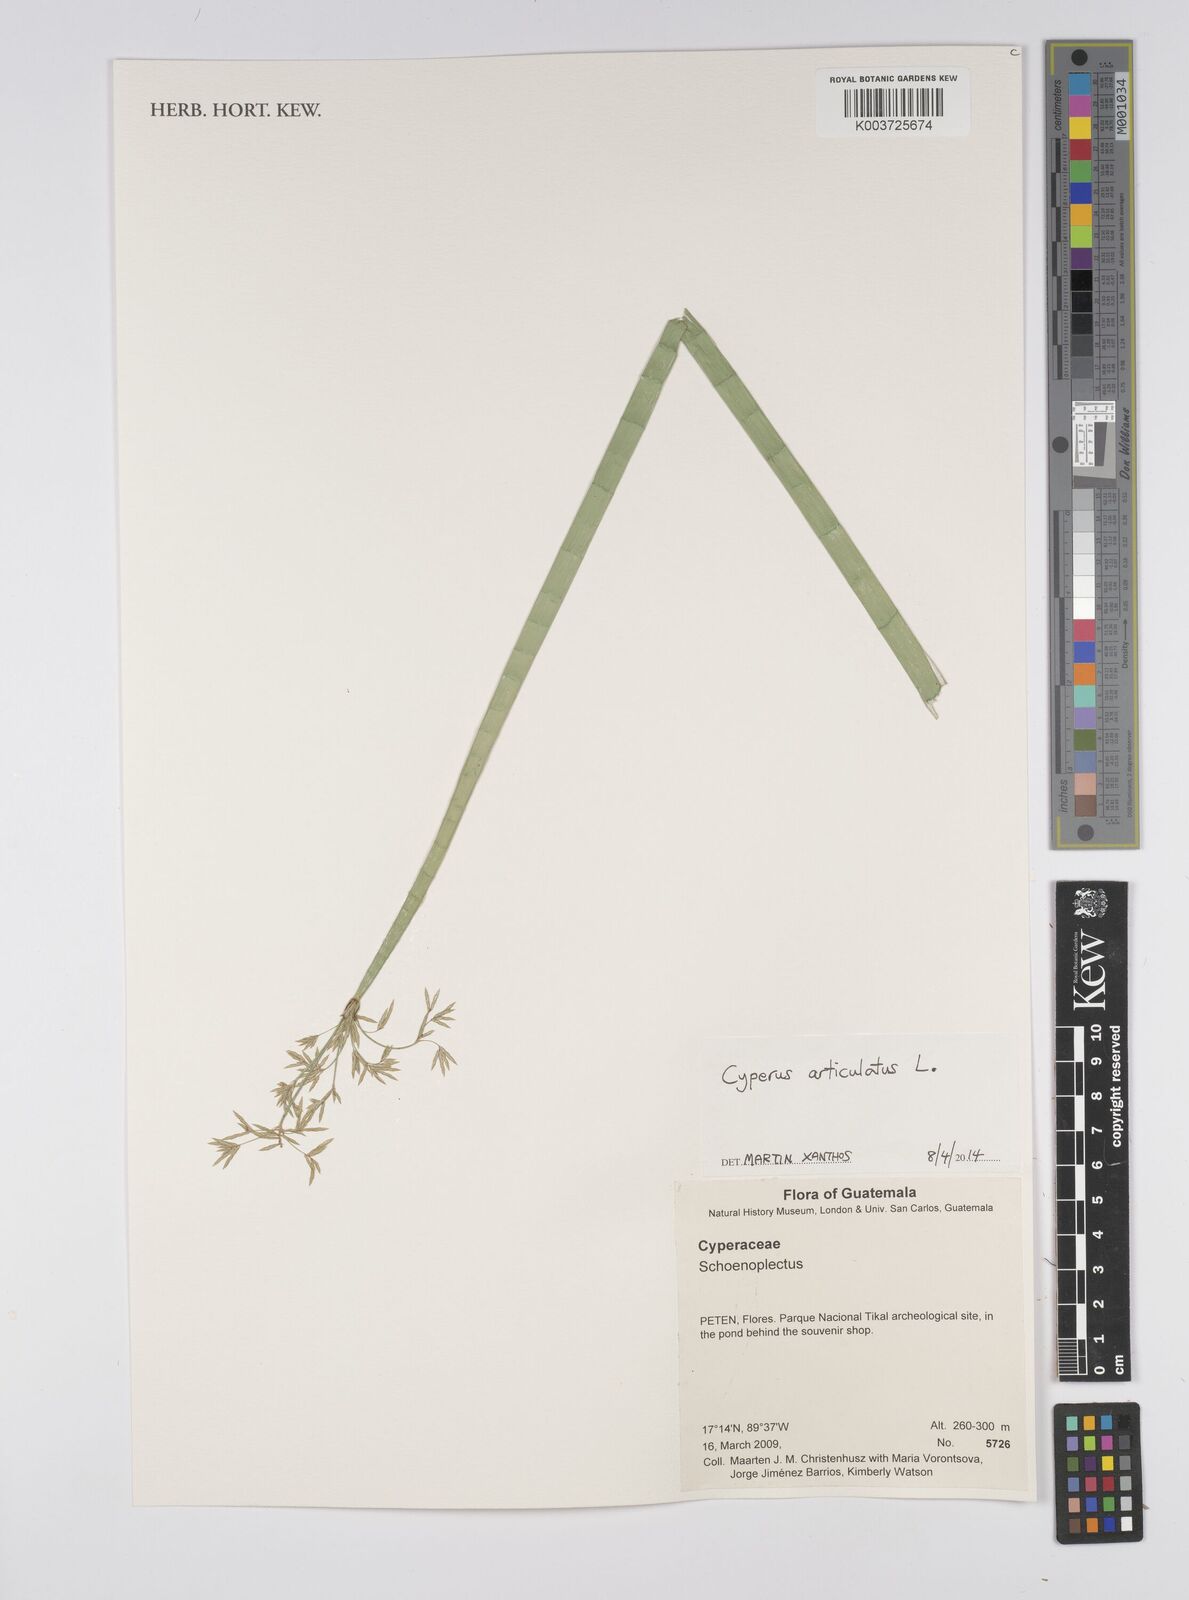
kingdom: Plantae
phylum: Tracheophyta
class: Liliopsida
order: Poales
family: Cyperaceae
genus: Cyperus
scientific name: Cyperus articulatus
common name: Jointed flatsedge
